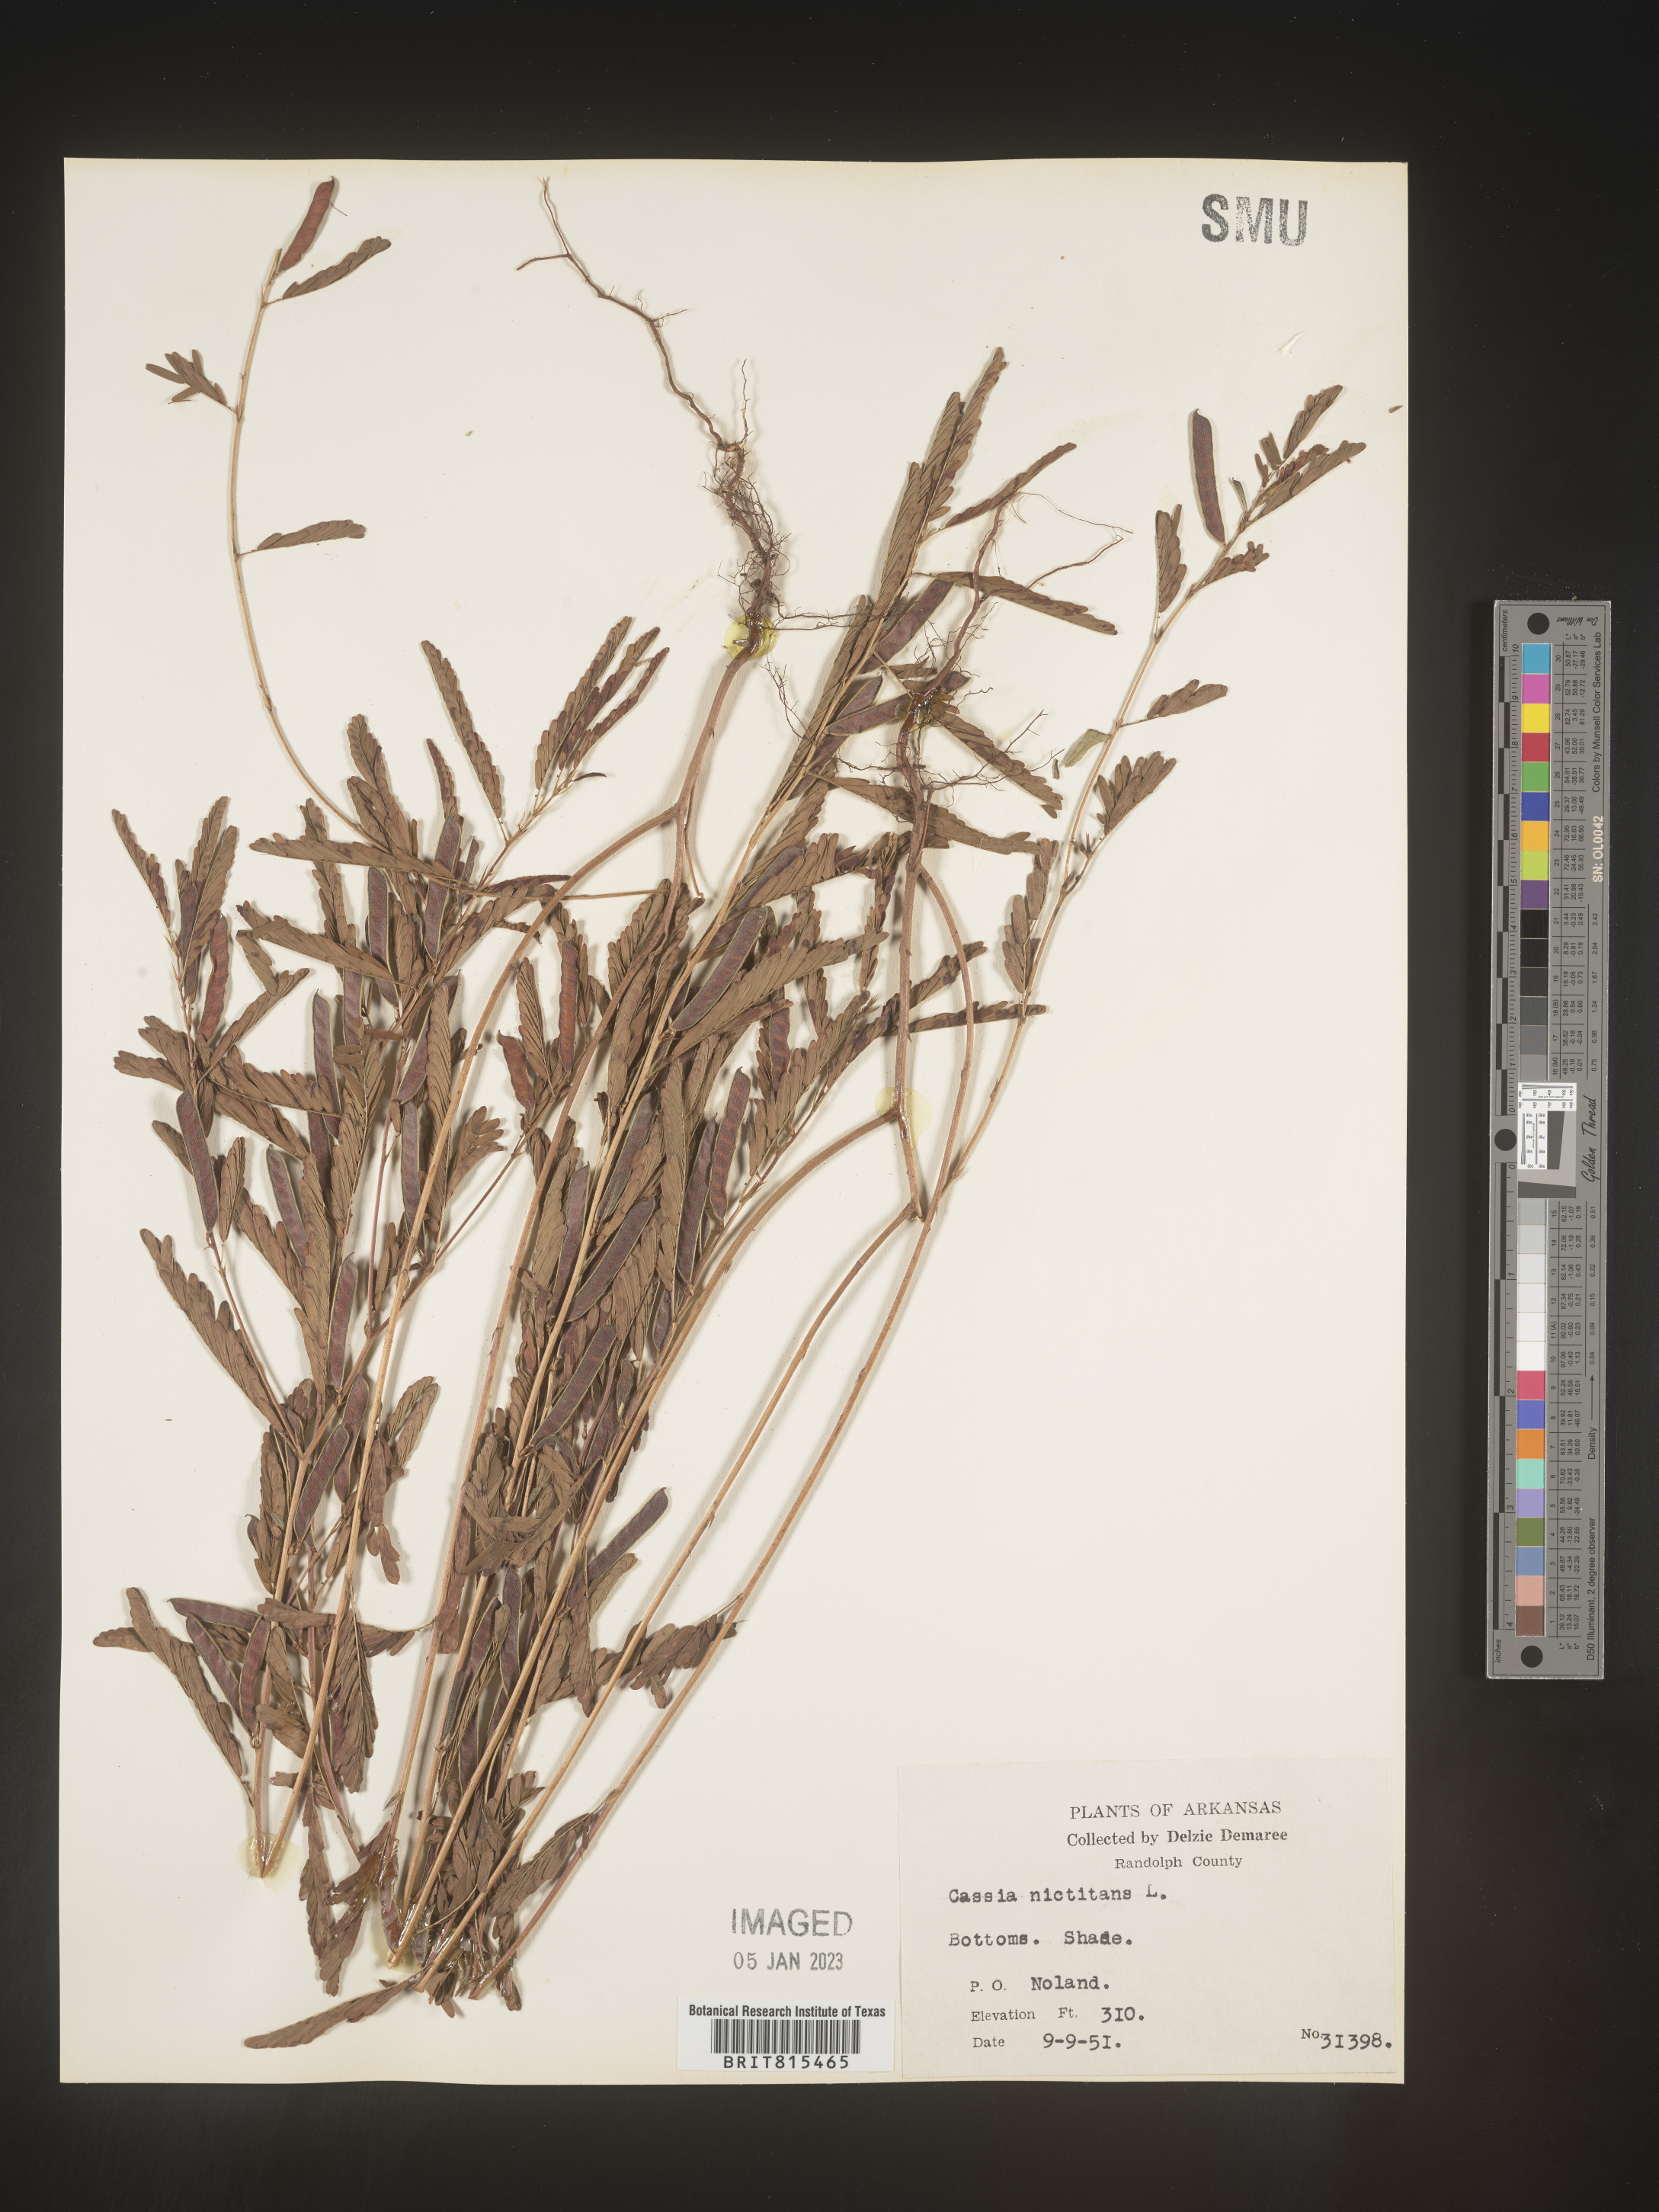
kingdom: Plantae
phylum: Tracheophyta
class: Magnoliopsida
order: Fabales
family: Fabaceae
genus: Chamaecrista
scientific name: Chamaecrista nictitans
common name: Sensitive cassia
